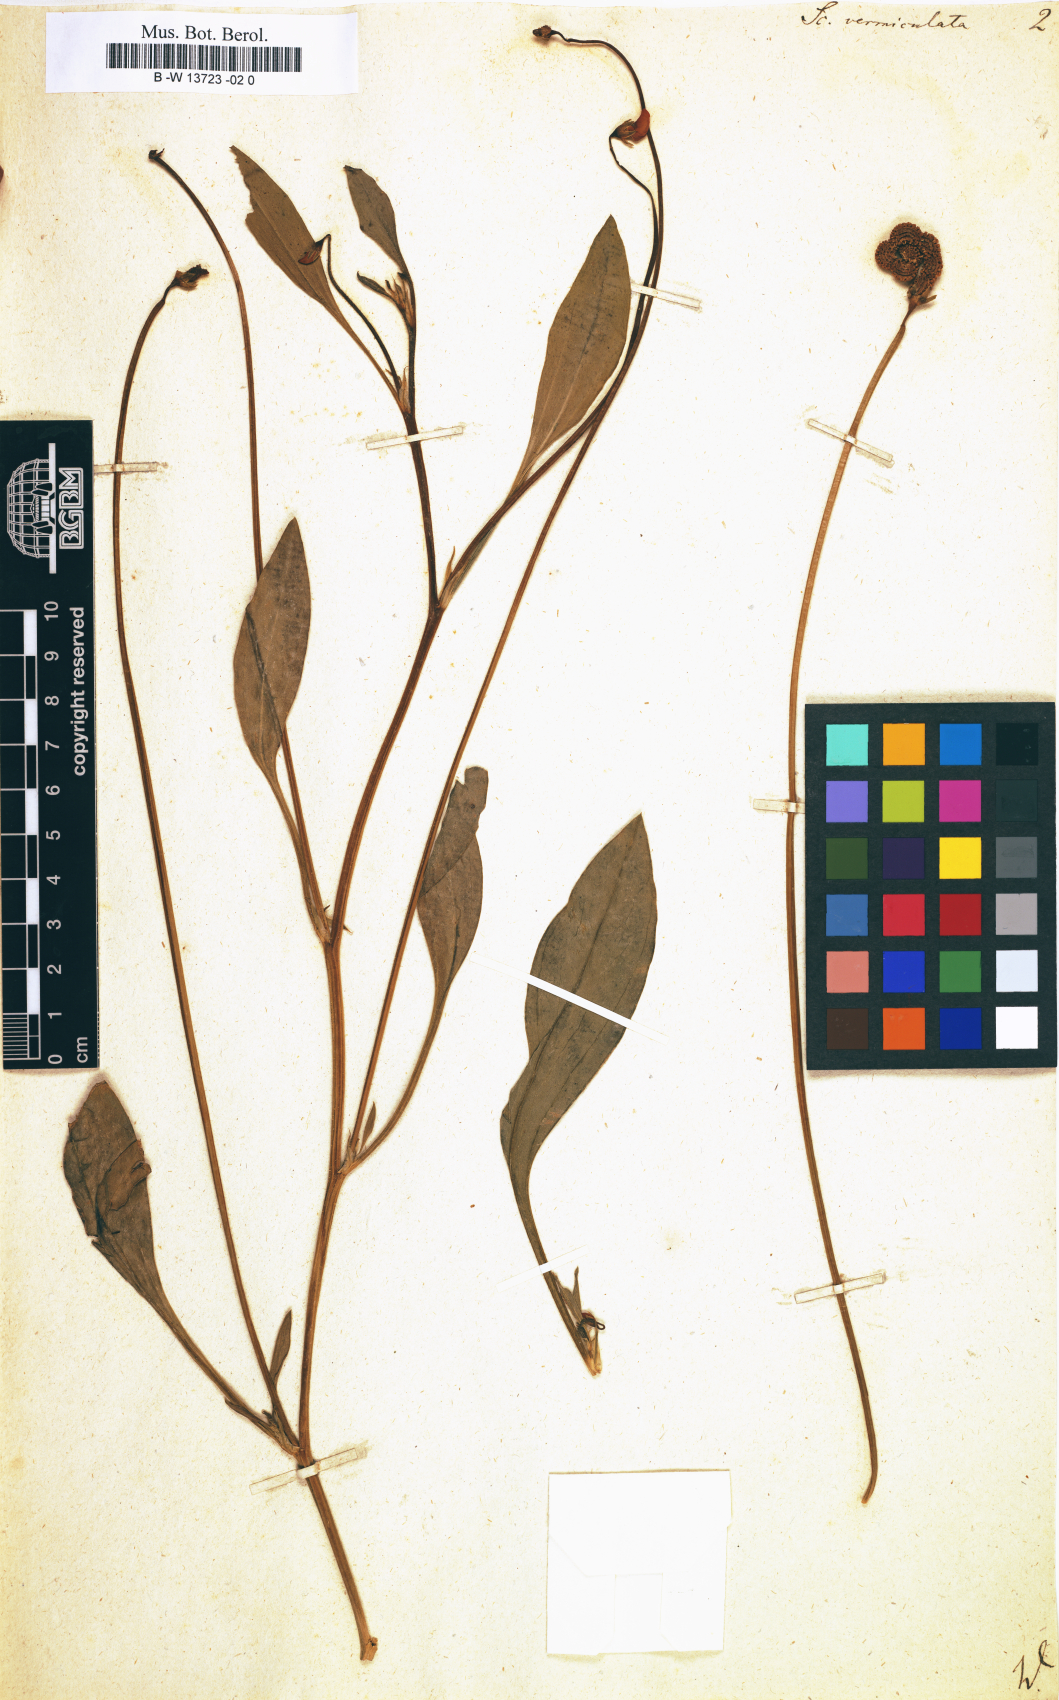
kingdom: Plantae
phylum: Tracheophyta
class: Magnoliopsida
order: Fabales
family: Fabaceae
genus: Scorpiurus
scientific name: Scorpiurus vermiculatus
